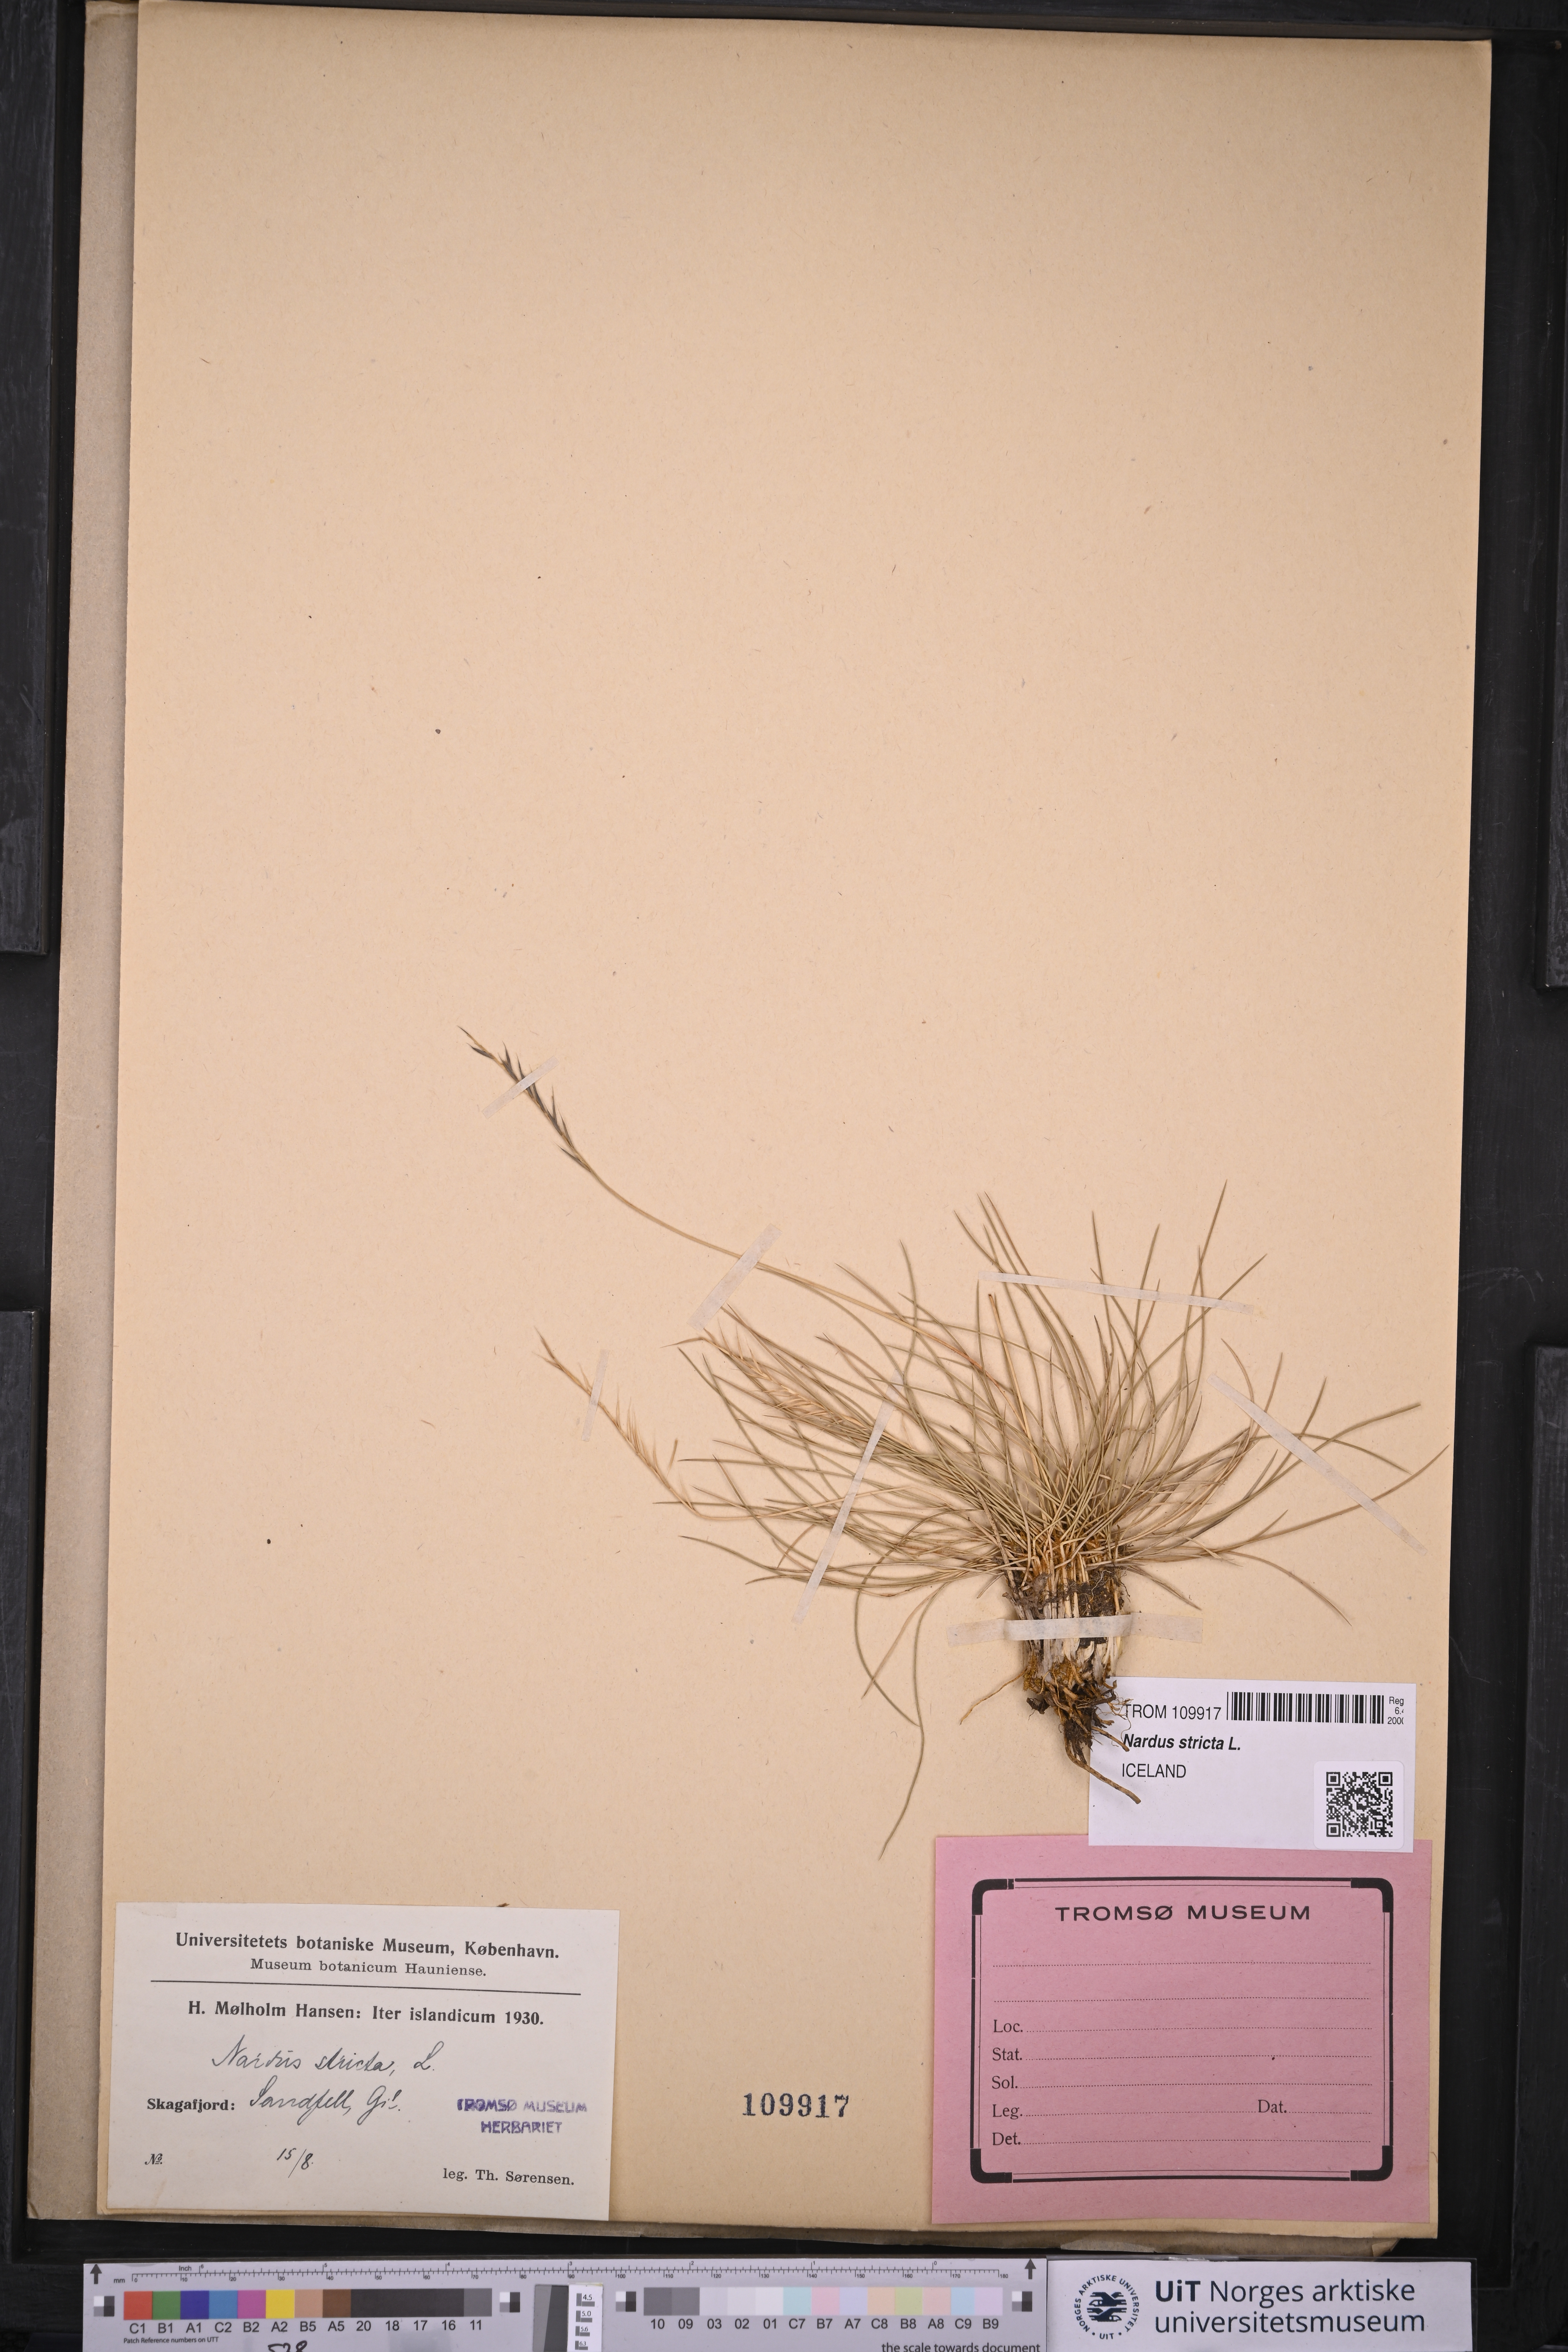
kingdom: Plantae
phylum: Tracheophyta
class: Liliopsida
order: Poales
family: Poaceae
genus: Nardus
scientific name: Nardus stricta
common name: Mat-grass
